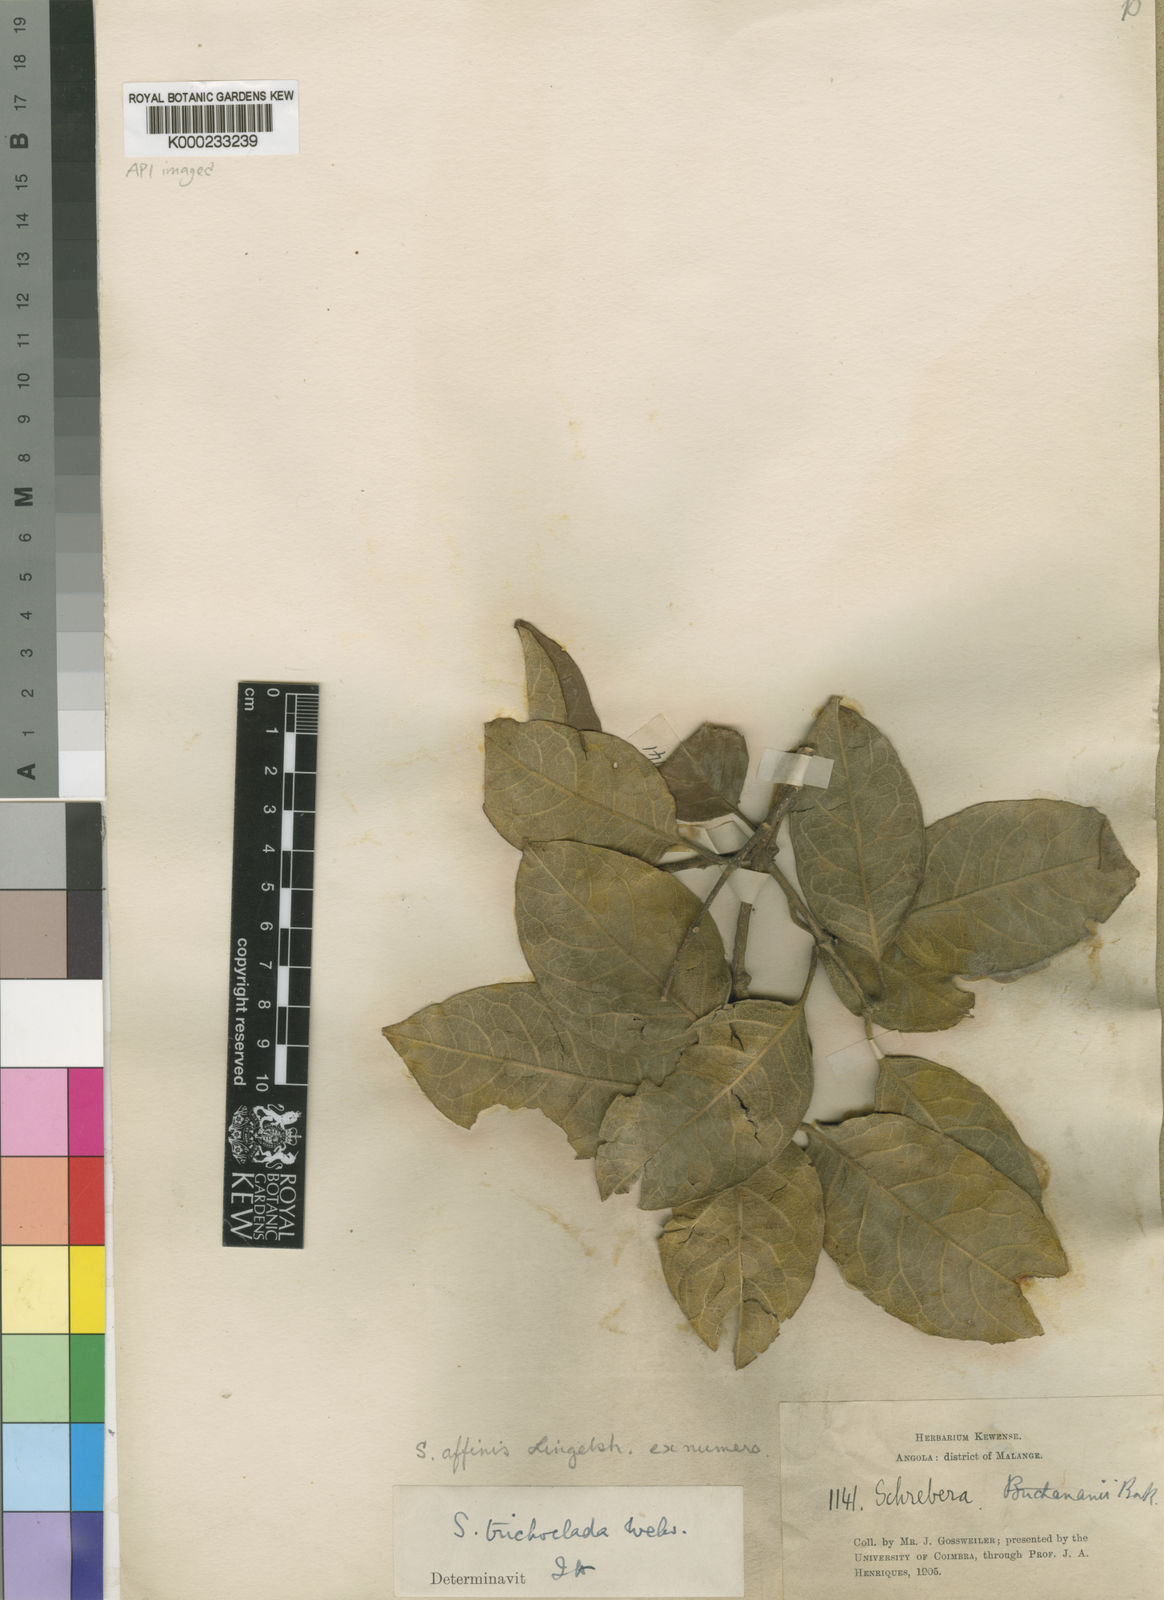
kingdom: Plantae
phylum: Tracheophyta
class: Magnoliopsida
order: Lamiales
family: Oleaceae
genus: Schrebera
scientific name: Schrebera trichoclada
